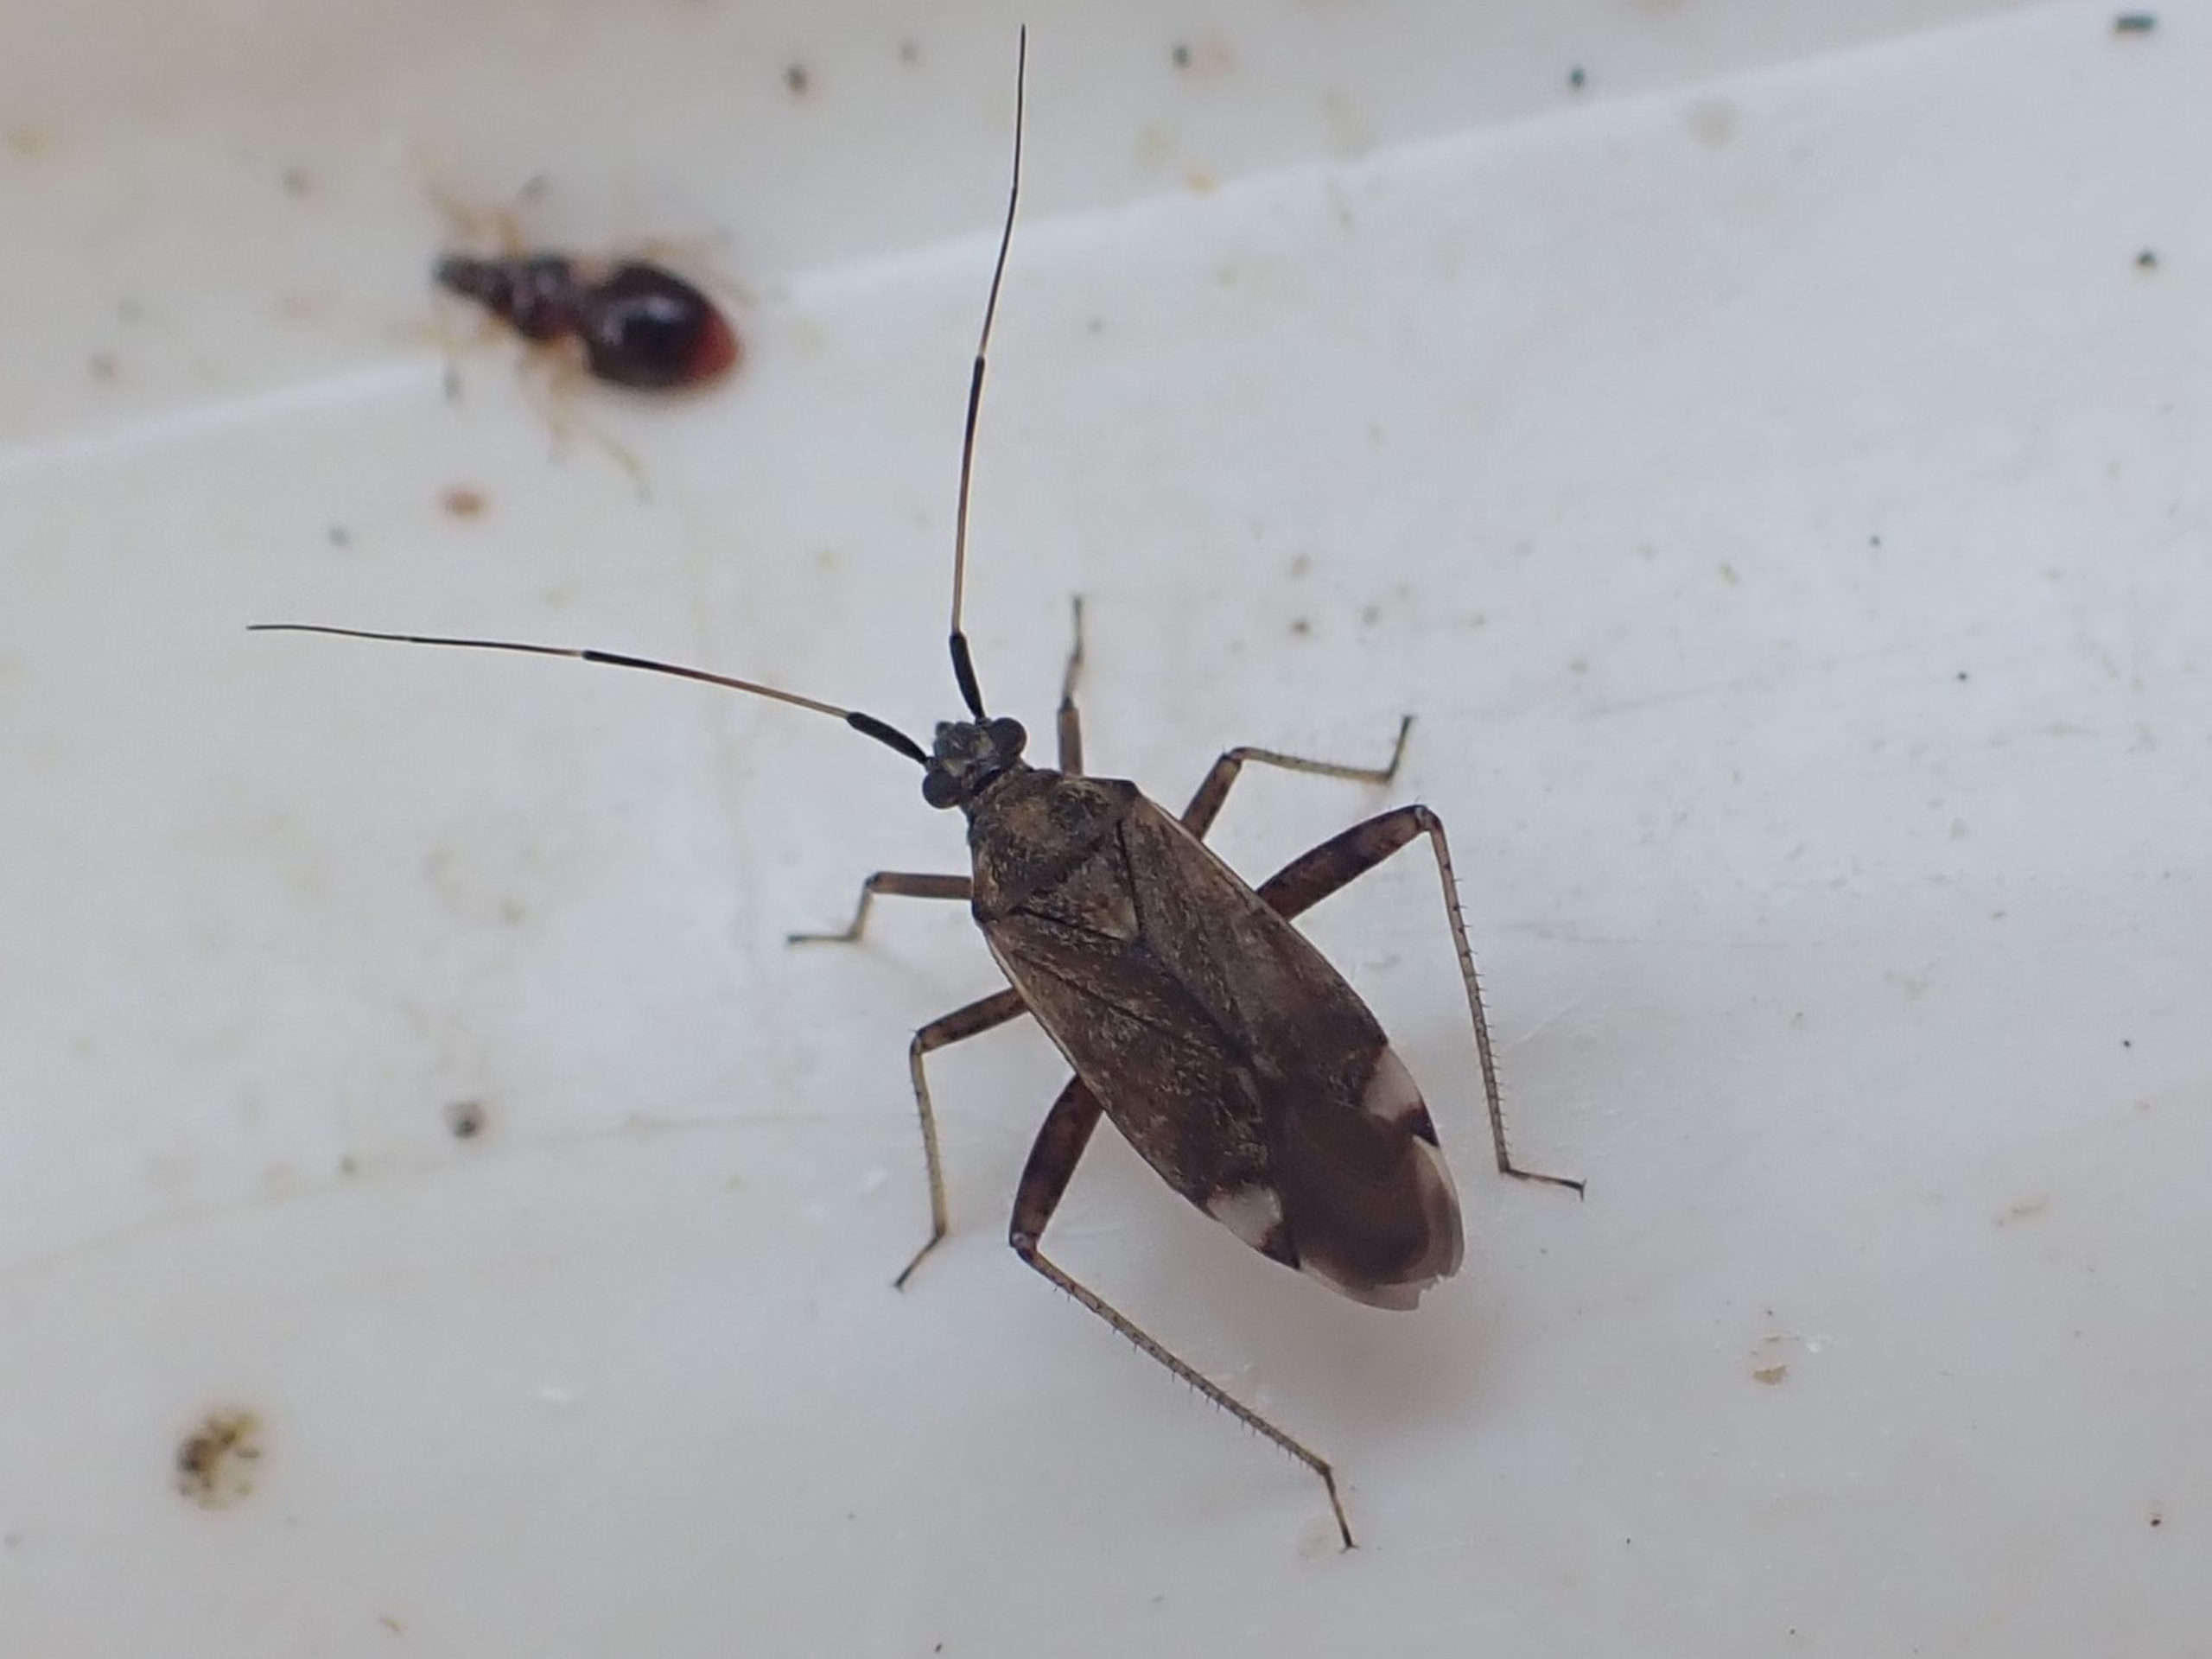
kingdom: Animalia
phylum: Arthropoda
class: Insecta
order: Hemiptera
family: Miridae
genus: Closterotomus
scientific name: Closterotomus fulvomaculatus
